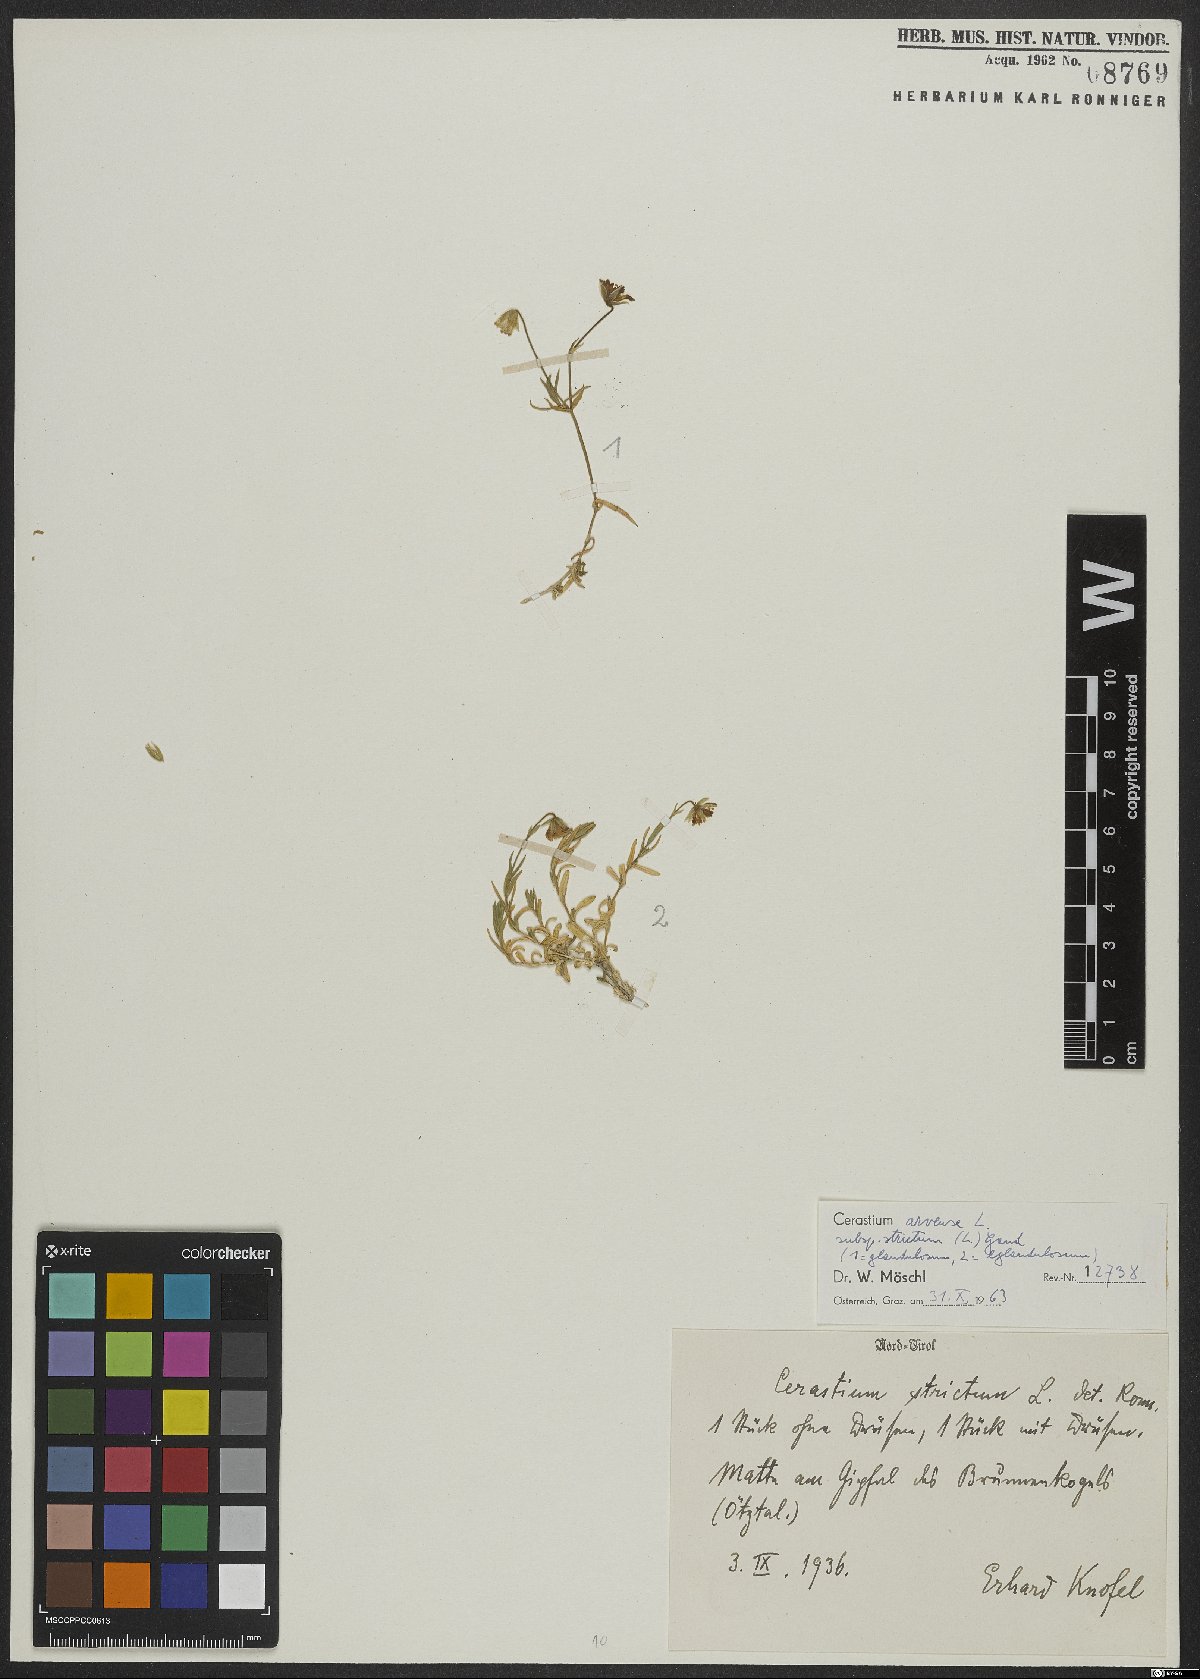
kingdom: Plantae
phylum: Tracheophyta
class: Magnoliopsida
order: Caryophyllales
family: Caryophyllaceae
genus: Cerastium
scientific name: Cerastium elongatum
